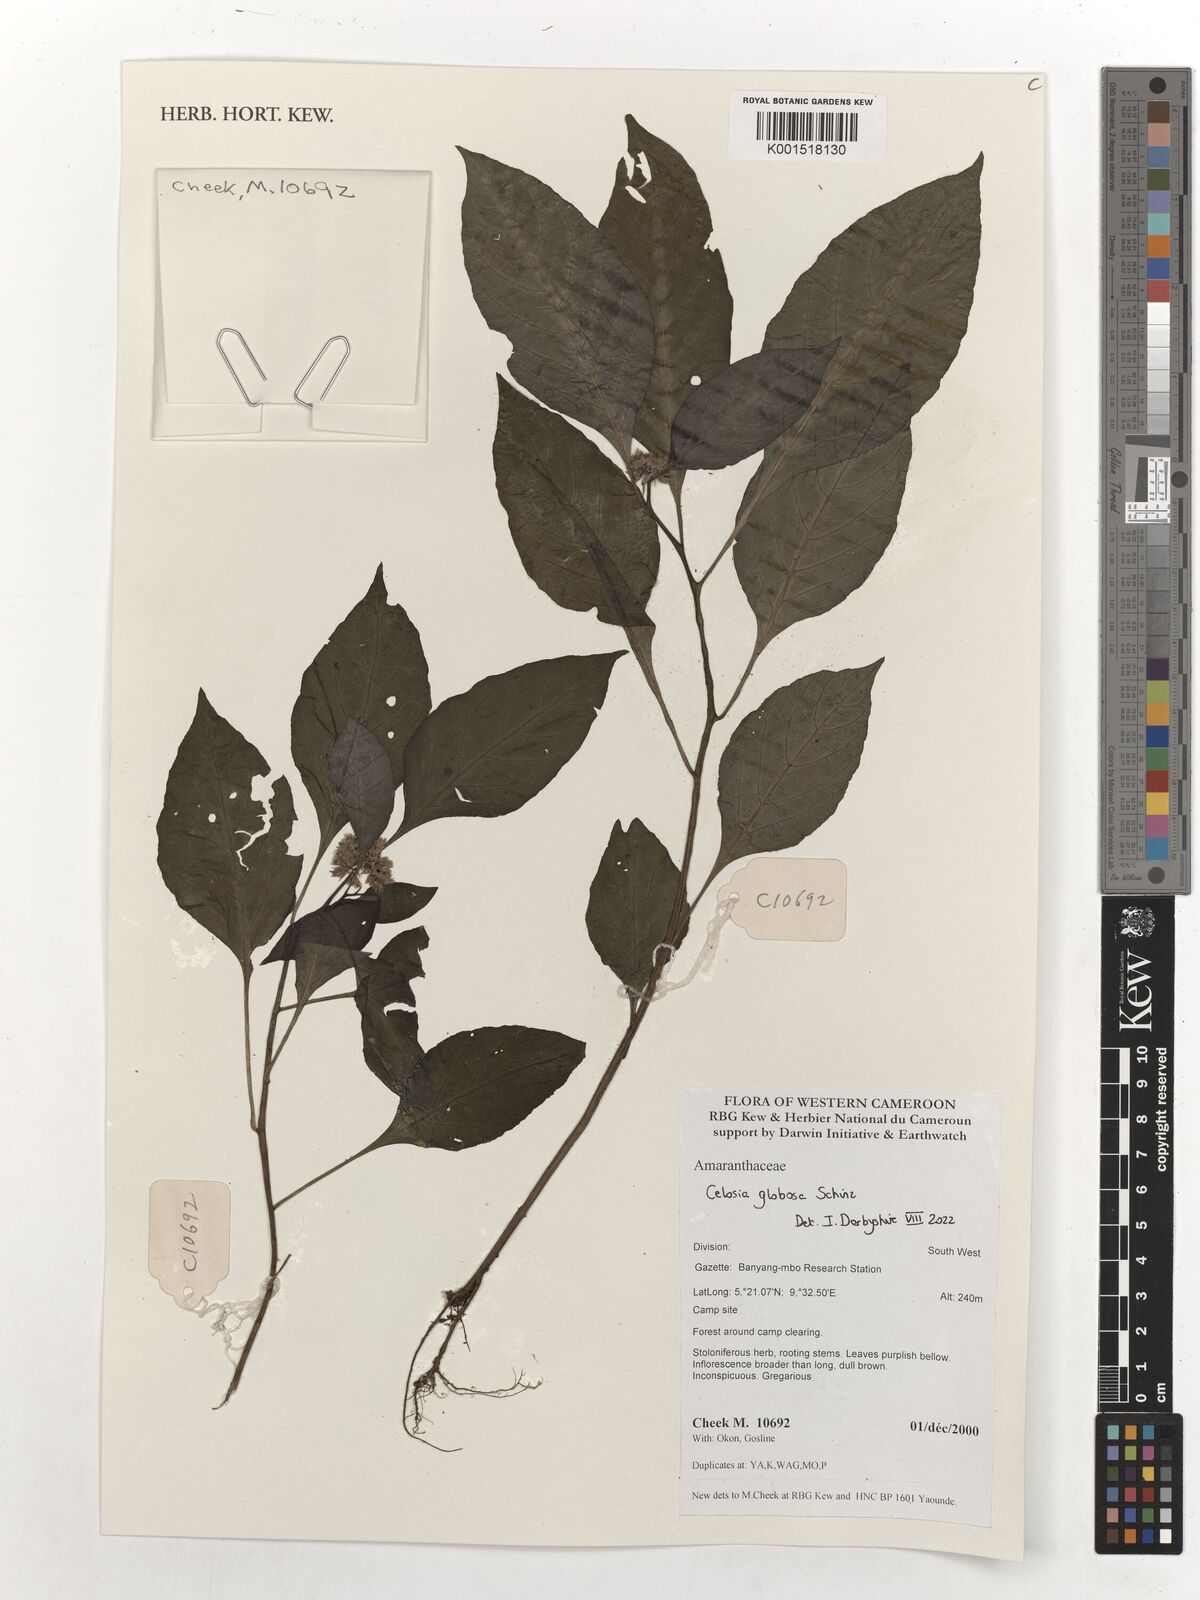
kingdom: Plantae
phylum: Tracheophyta
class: Magnoliopsida
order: Caryophyllales
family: Amaranthaceae
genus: Celosia
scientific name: Celosia globosa
